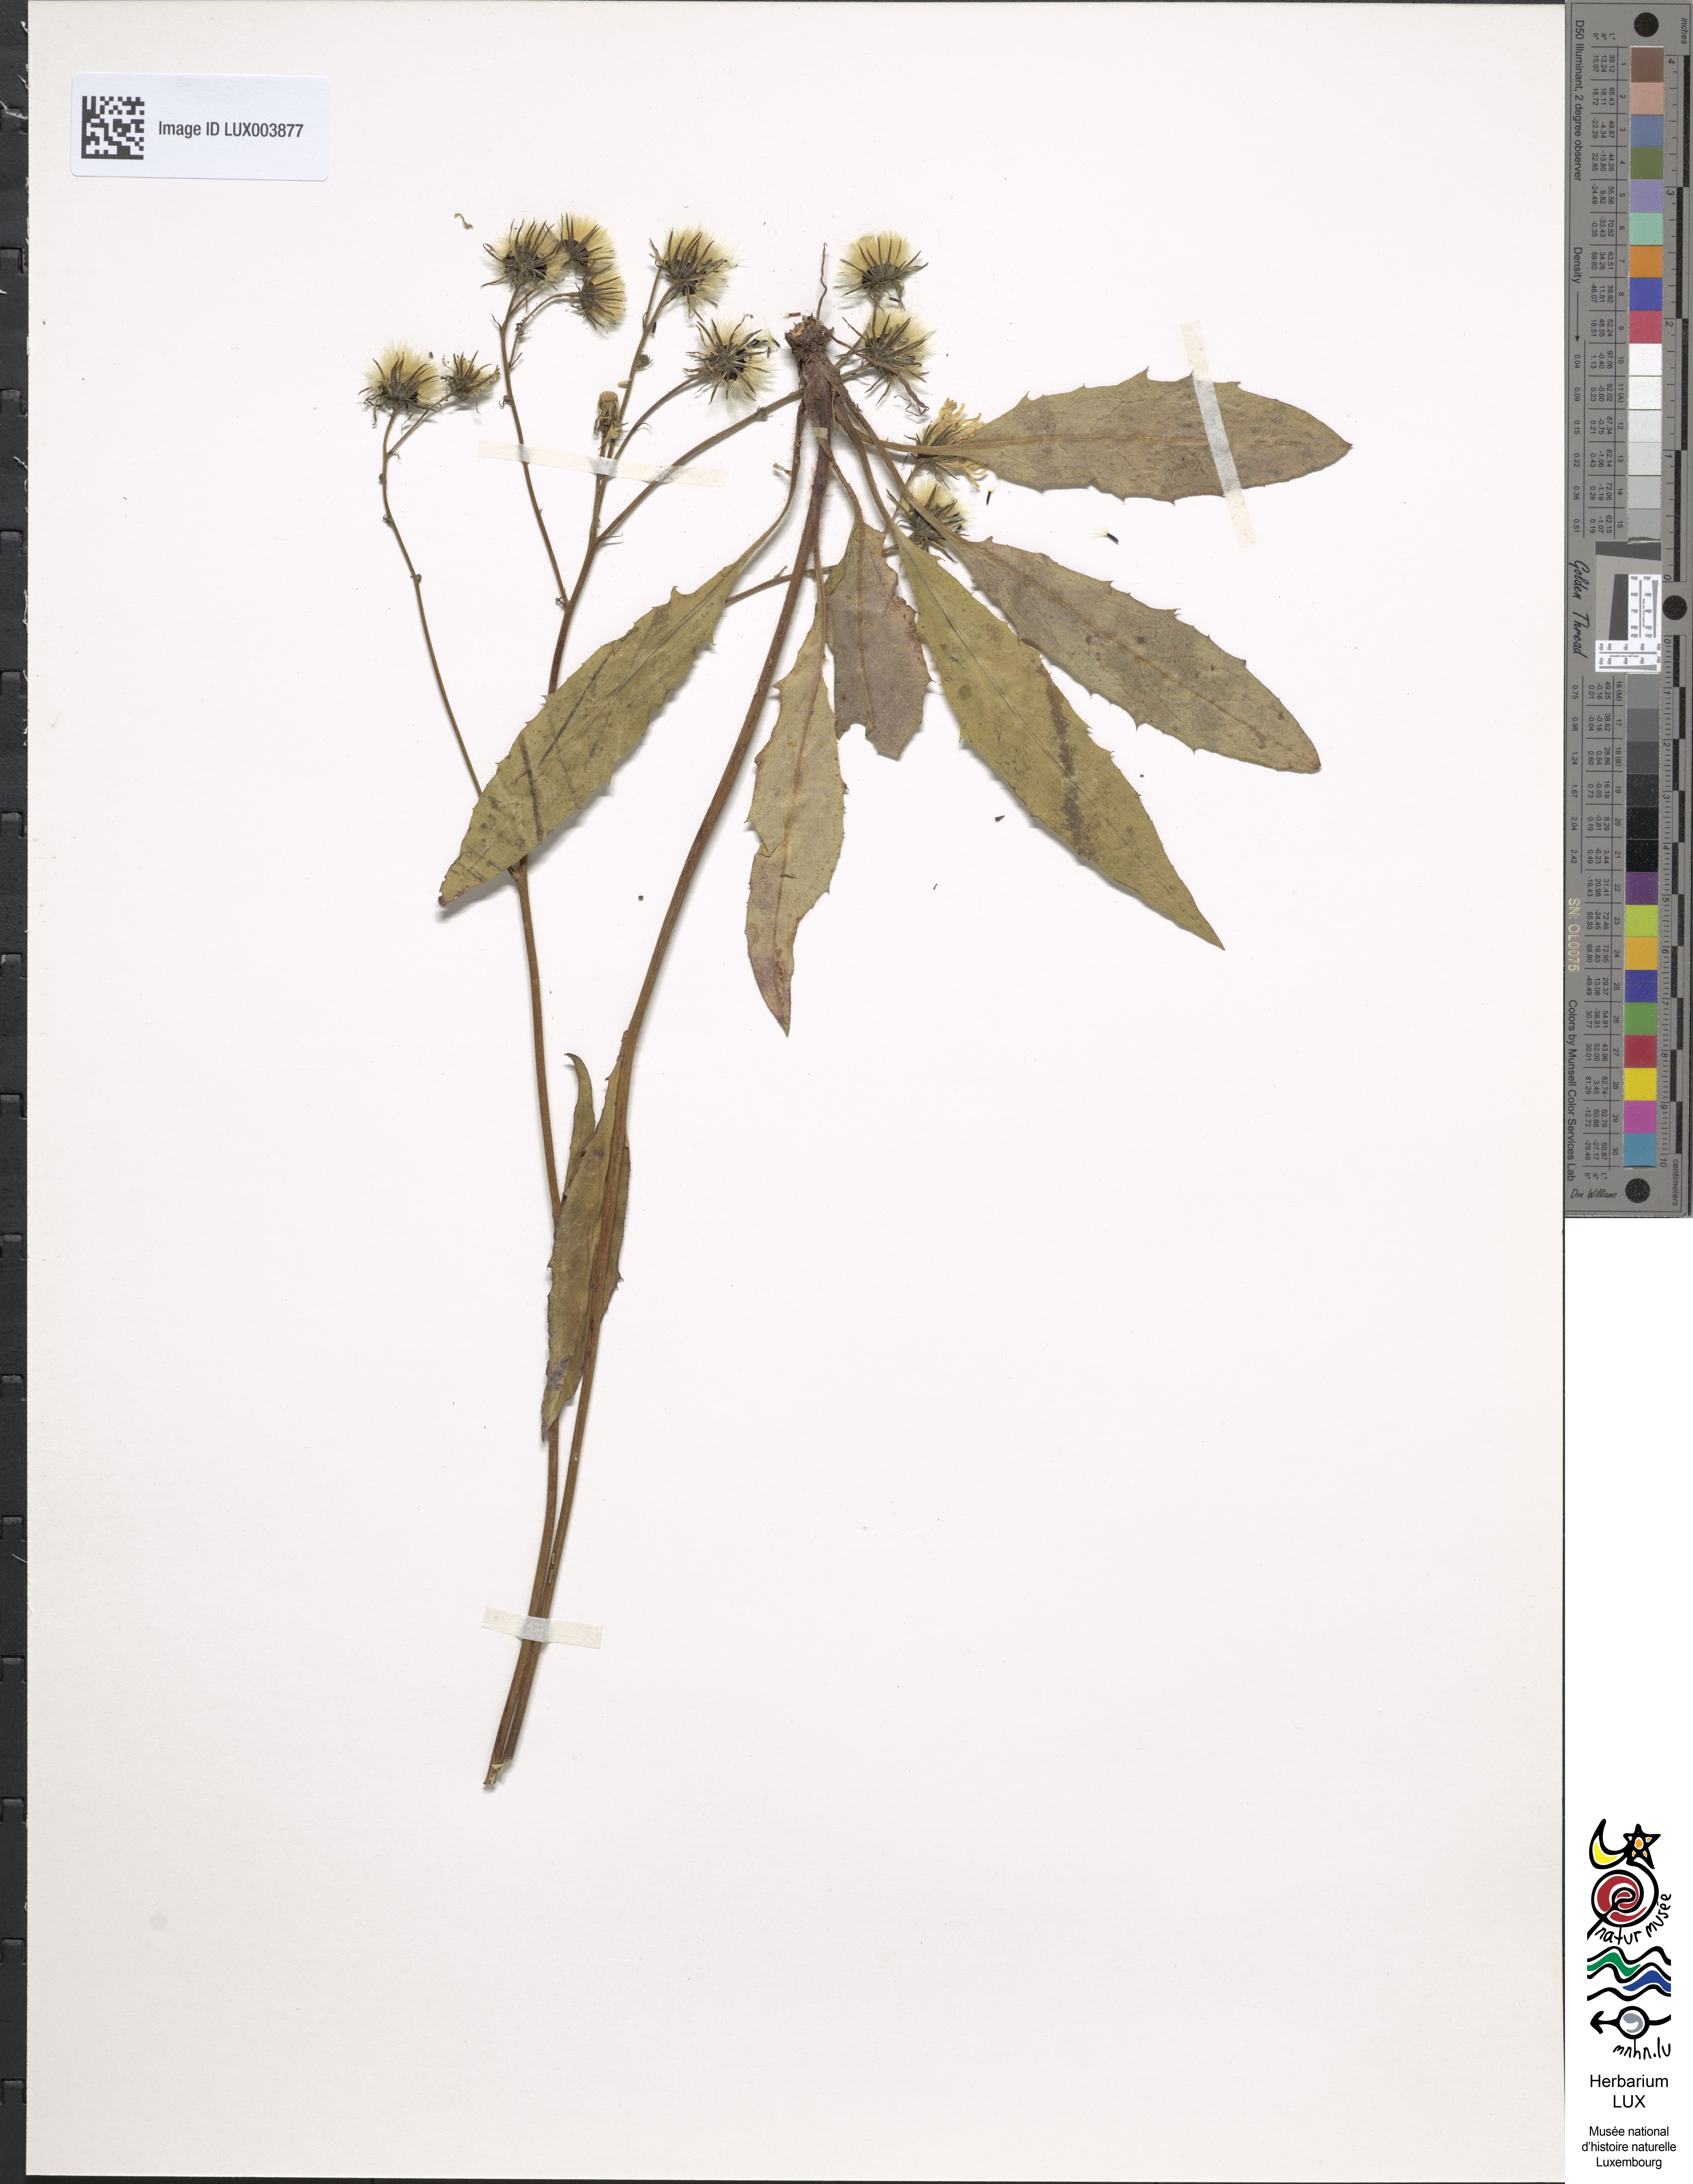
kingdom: Plantae
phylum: Tracheophyta
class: Magnoliopsida
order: Asterales
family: Asteraceae
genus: Hieracium
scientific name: Hieracium lachenalii
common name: Common hawkweed
